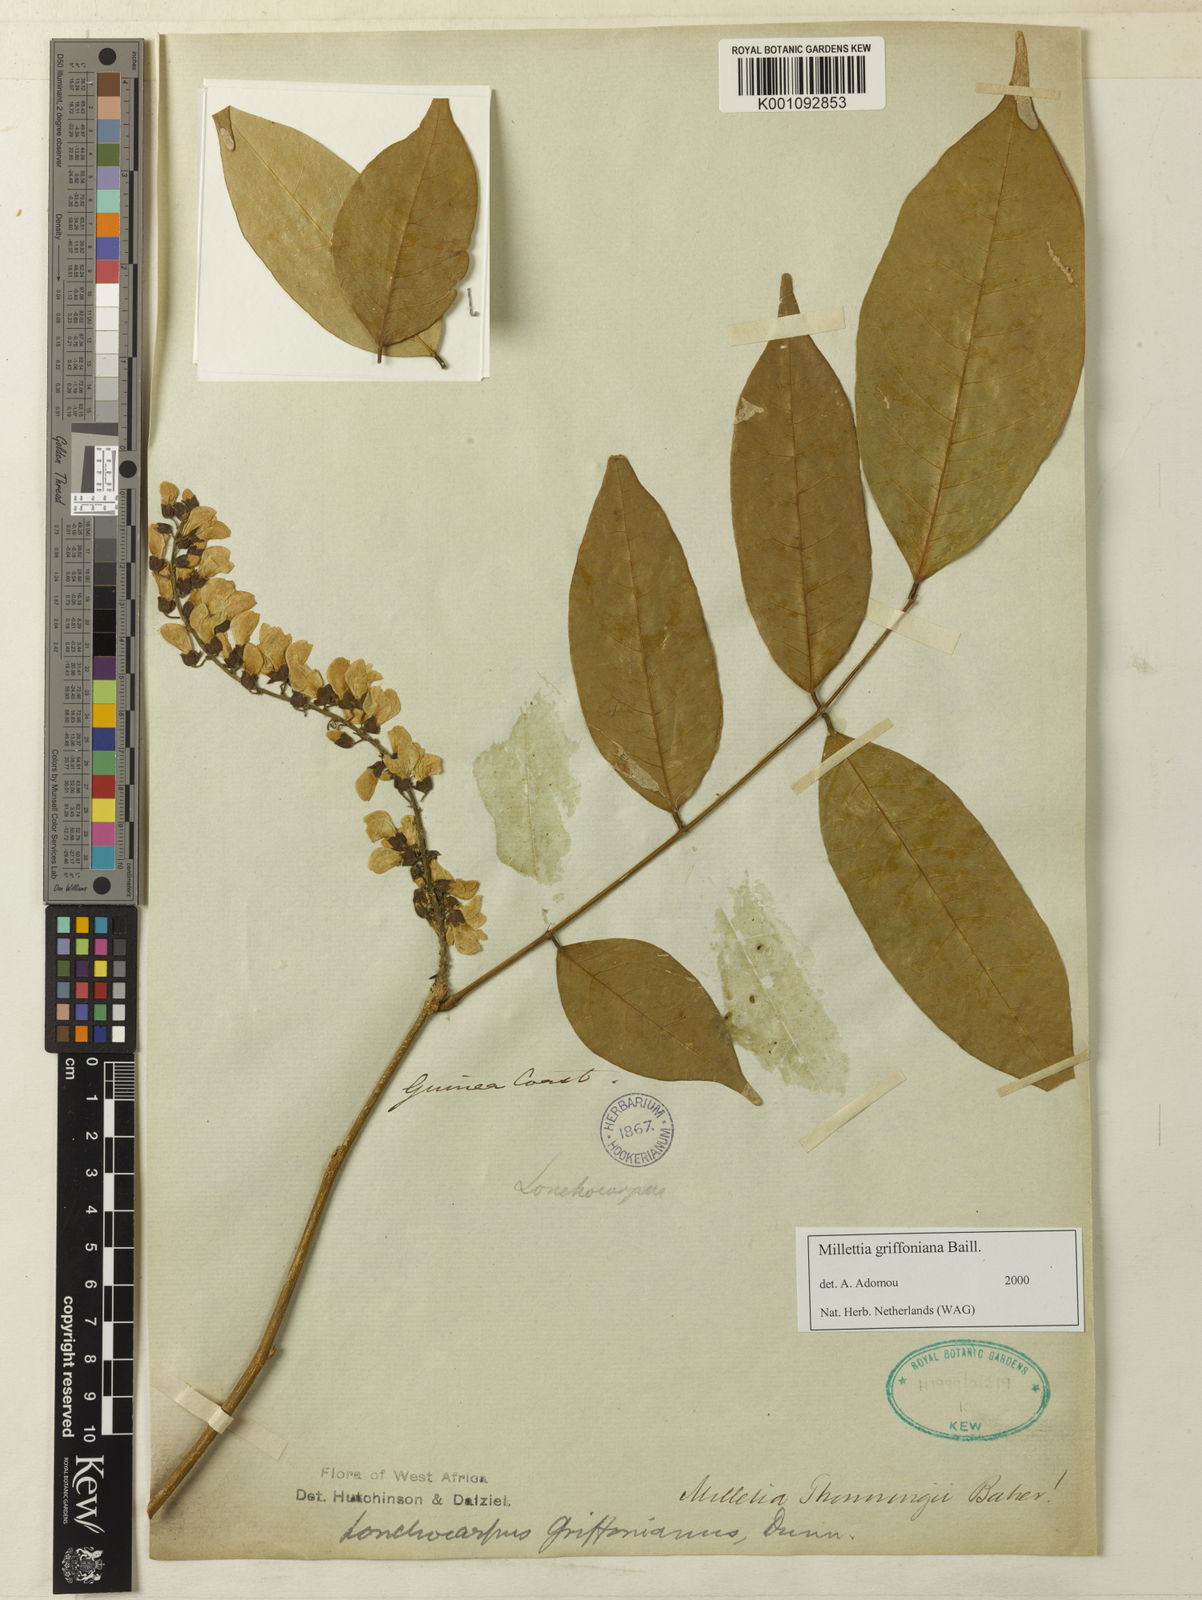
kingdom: Plantae
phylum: Tracheophyta
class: Magnoliopsida
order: Fabales
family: Fabaceae
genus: Millettia
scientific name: Millettia griffoniana
